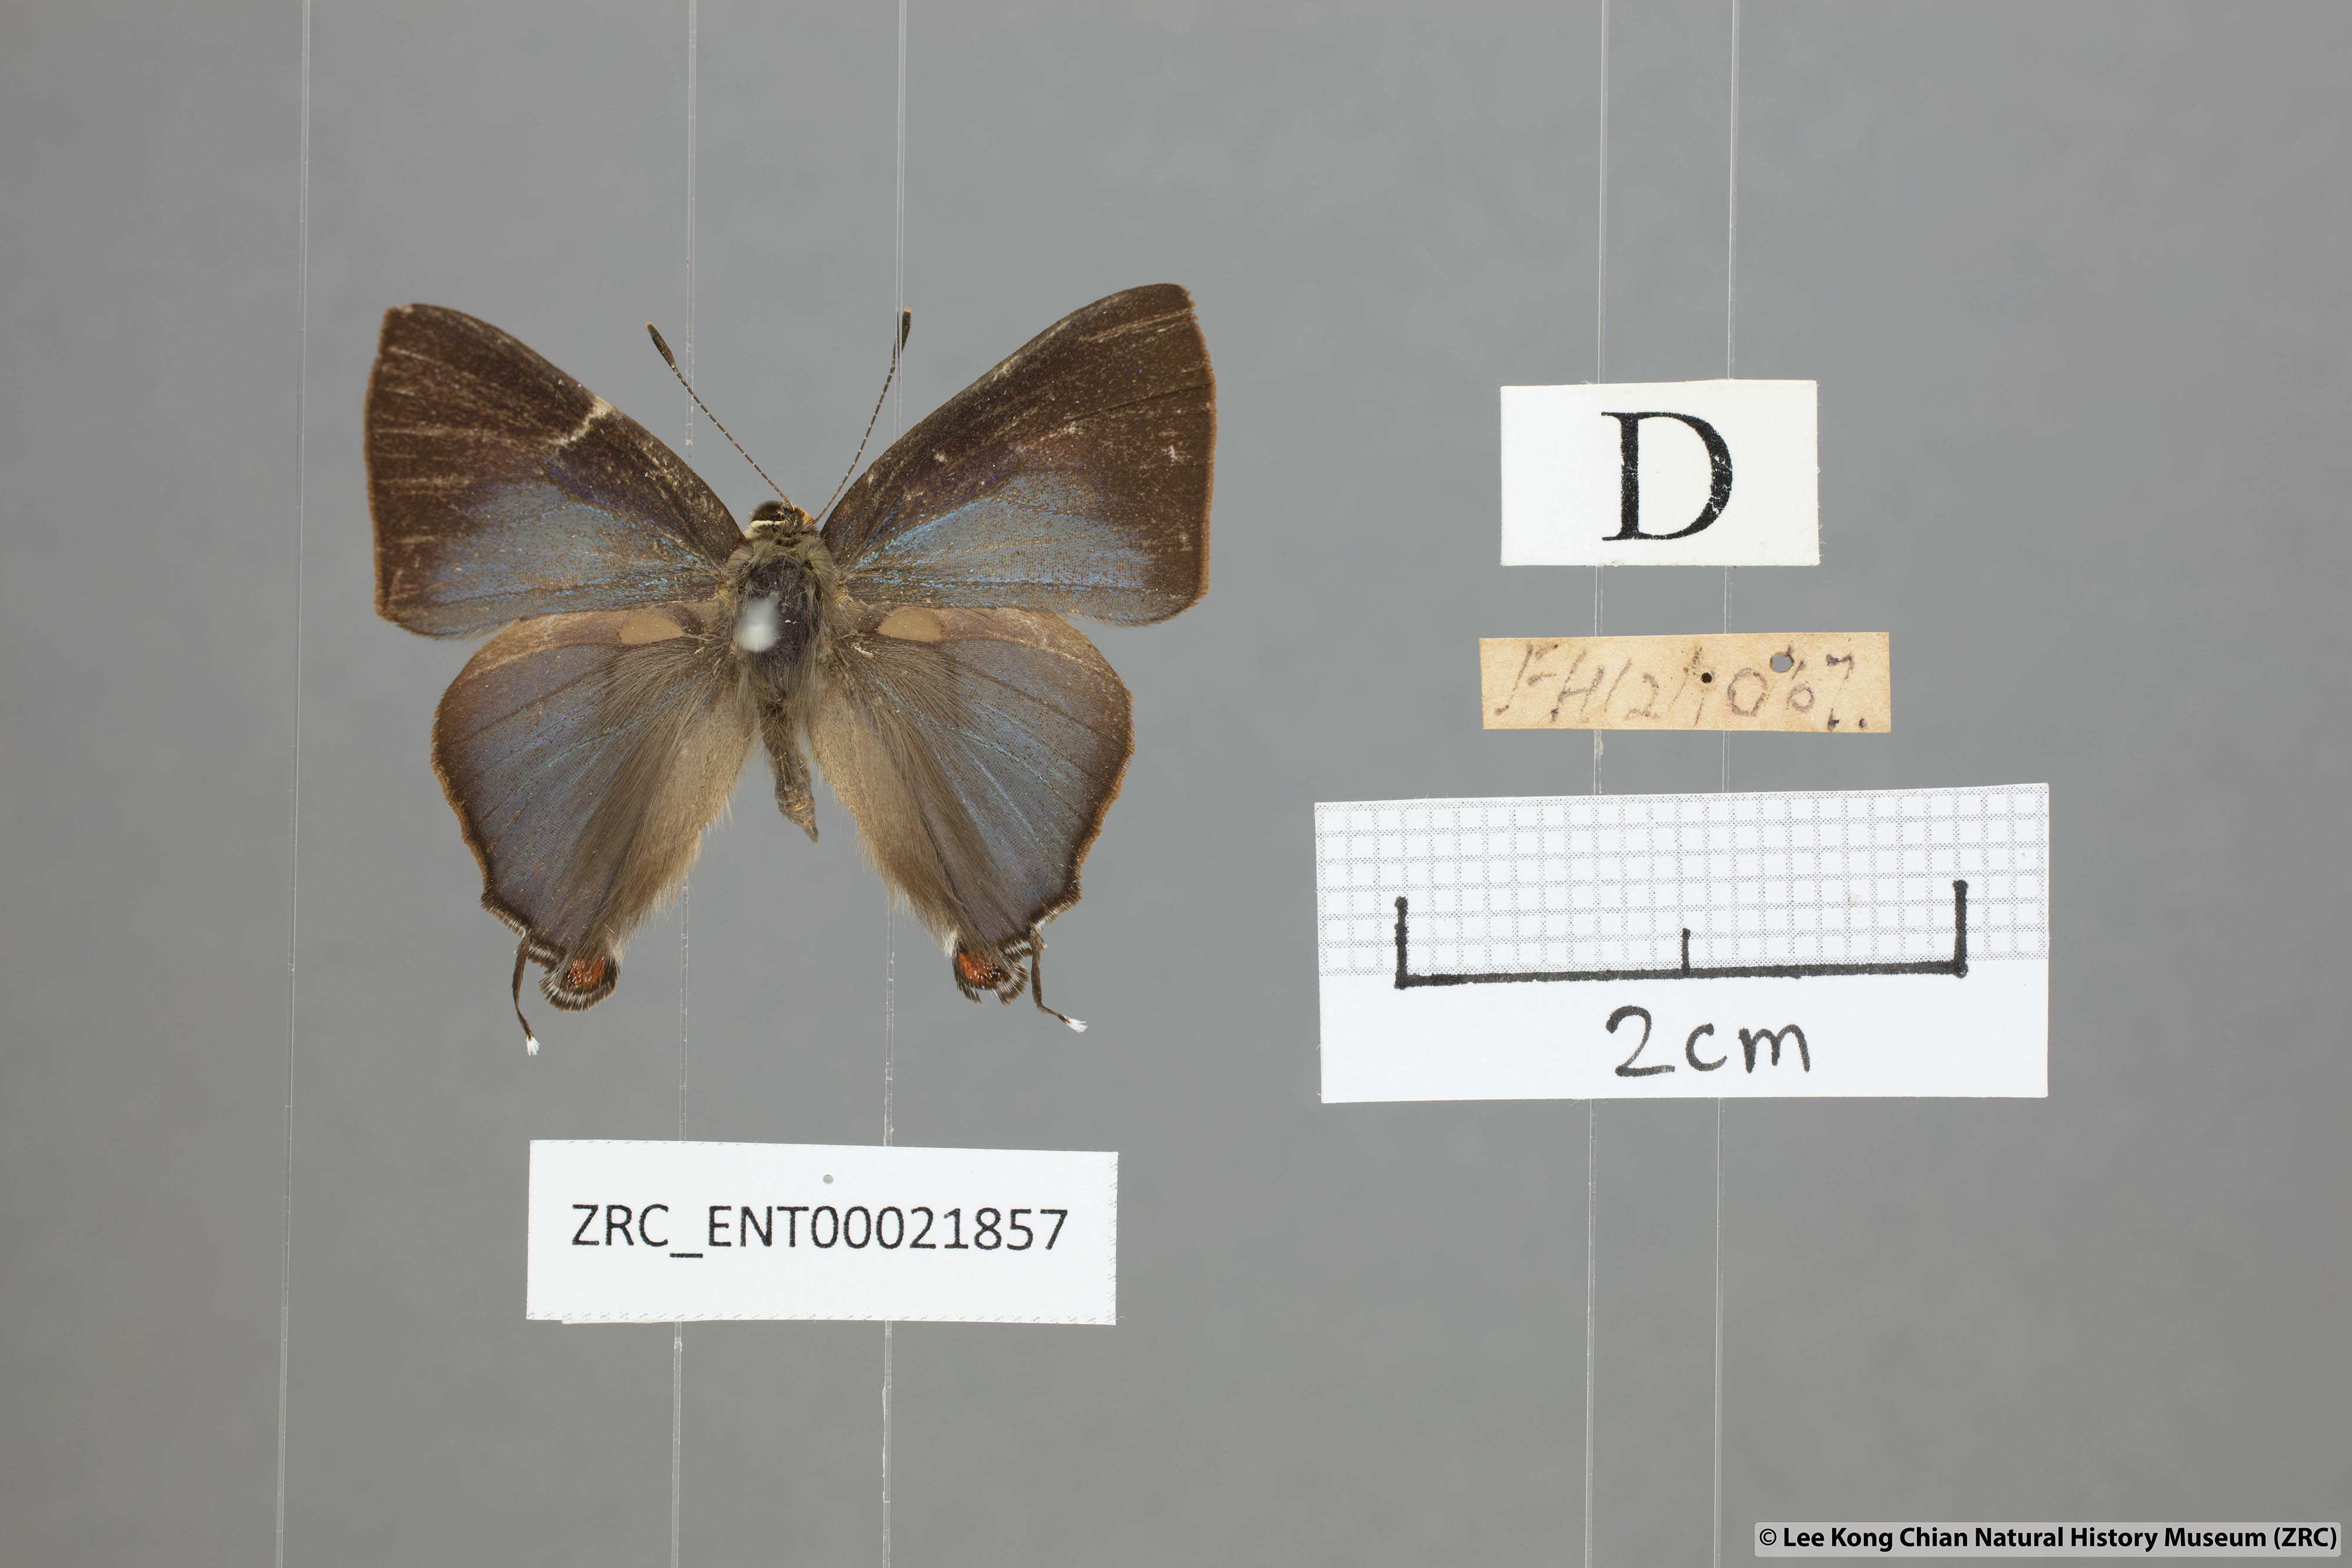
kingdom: Animalia
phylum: Arthropoda
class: Insecta
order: Lepidoptera
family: Lycaenidae
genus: Rapala
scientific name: Rapala nissa
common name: Common flash
